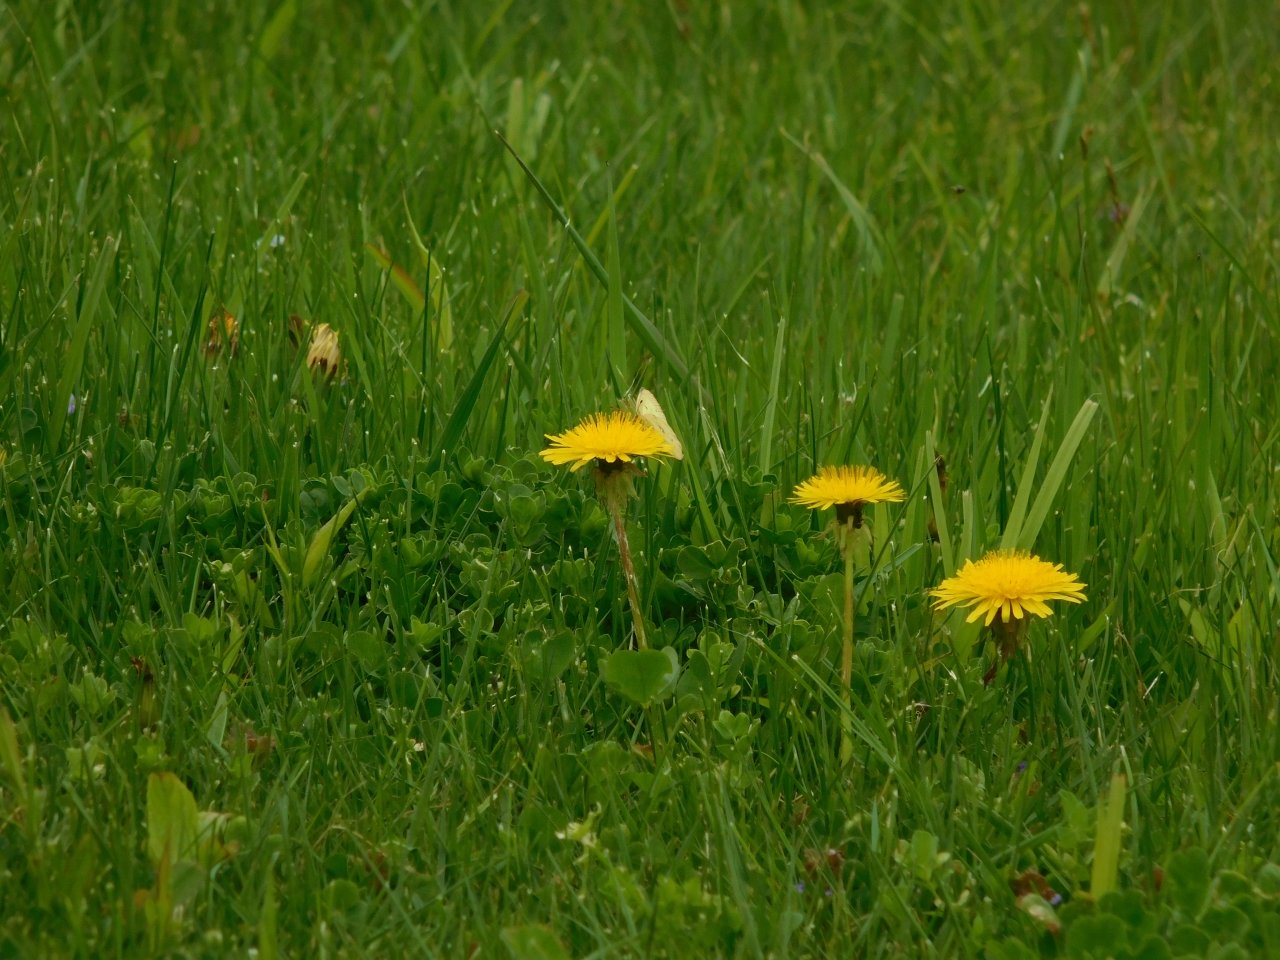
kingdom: Animalia
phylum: Arthropoda
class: Insecta
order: Lepidoptera
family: Pieridae
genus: Colias
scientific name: Colias philodice
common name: Clouded Sulphur
